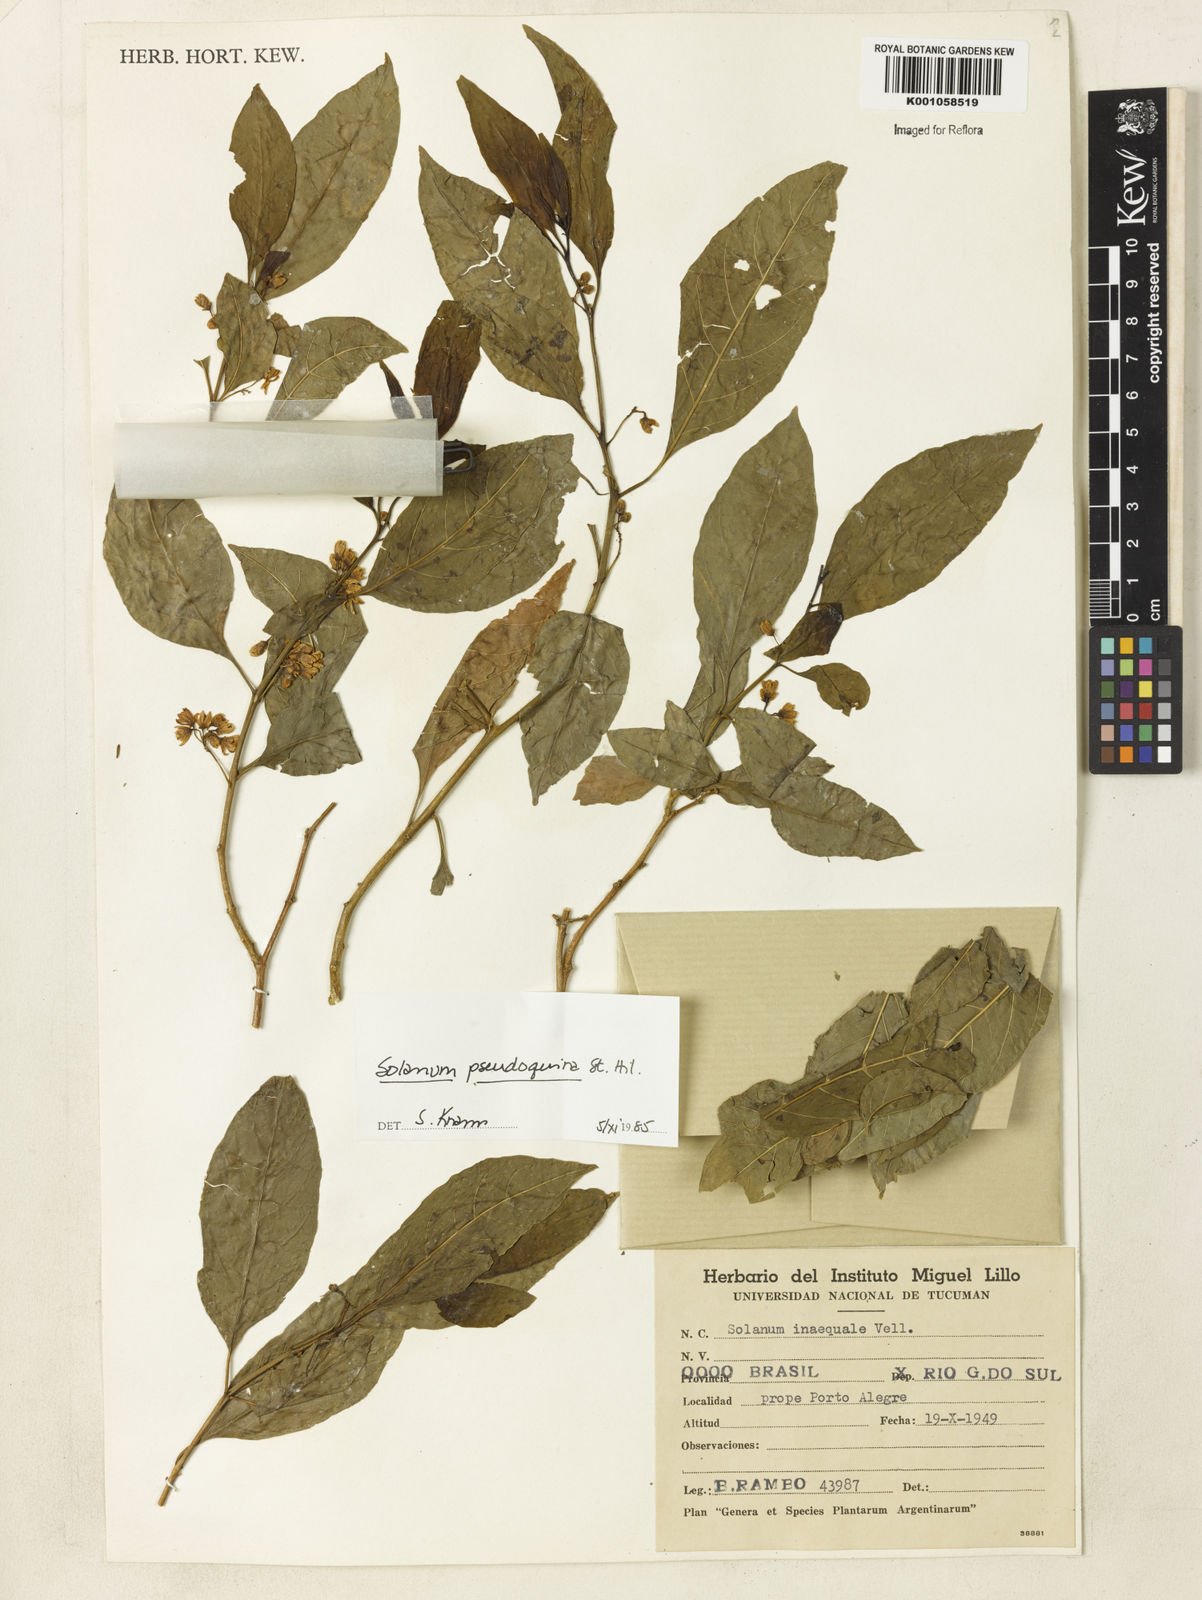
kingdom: Plantae
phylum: Tracheophyta
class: Magnoliopsida
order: Solanales
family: Solanaceae
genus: Solanum
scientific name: Solanum pseudoquina
